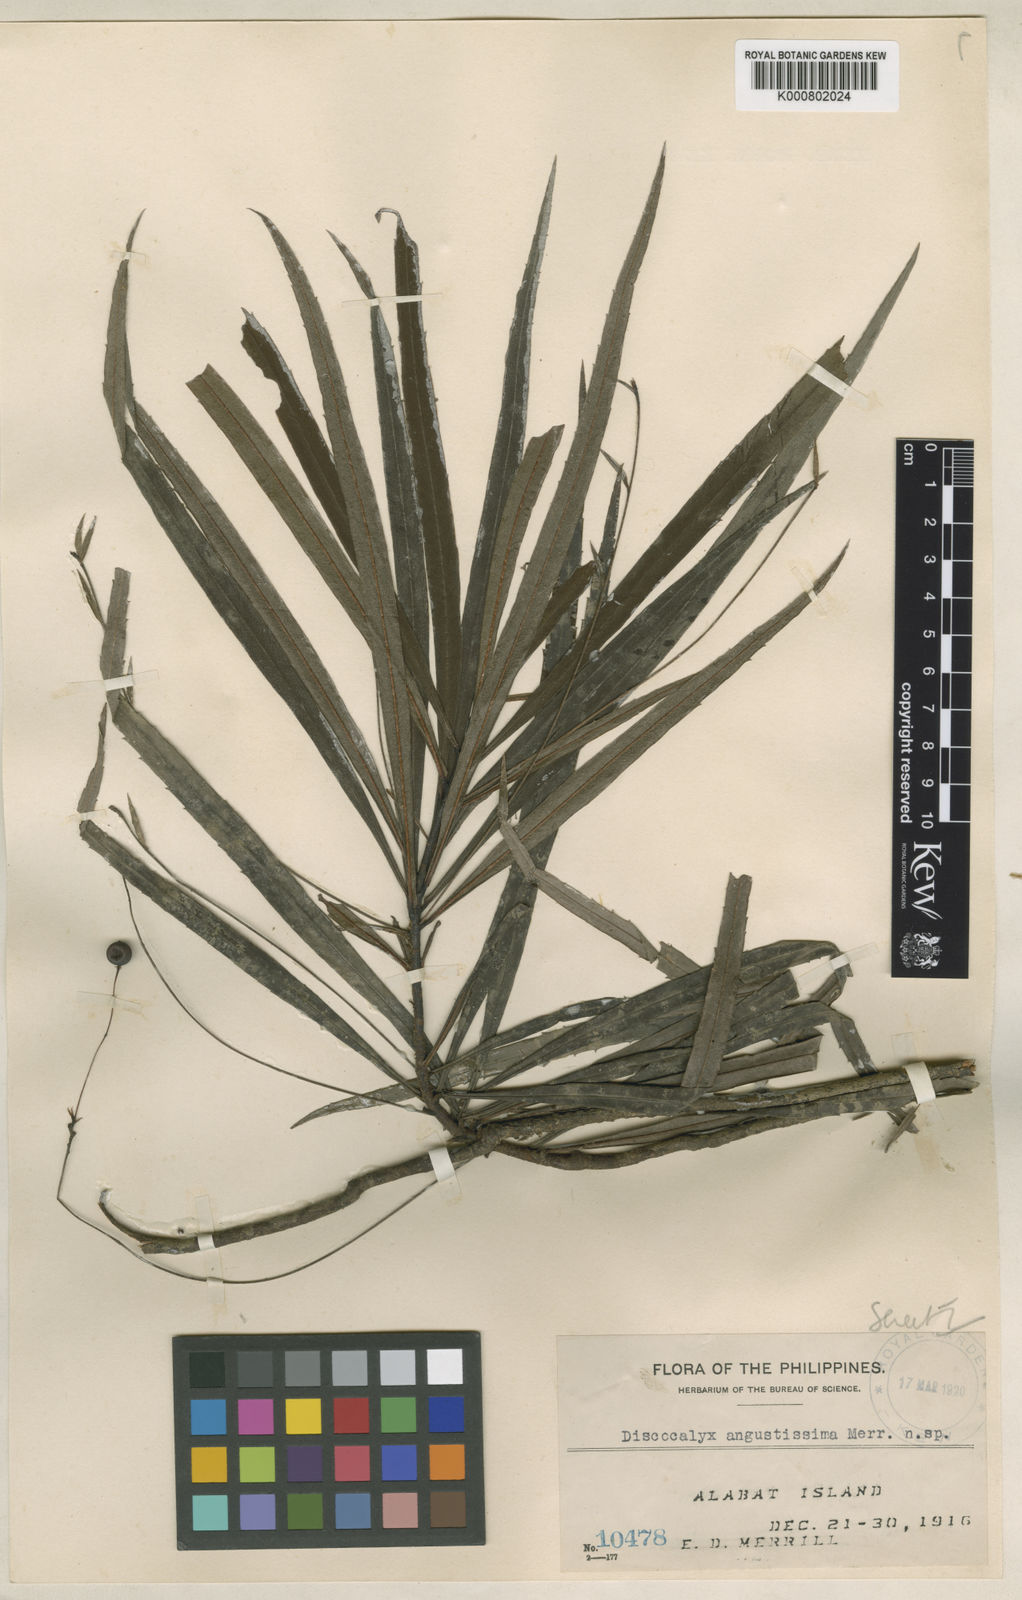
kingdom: Plantae
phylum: Tracheophyta
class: Magnoliopsida
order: Ericales
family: Primulaceae
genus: Discocalyx
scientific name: Discocalyx angustissima
